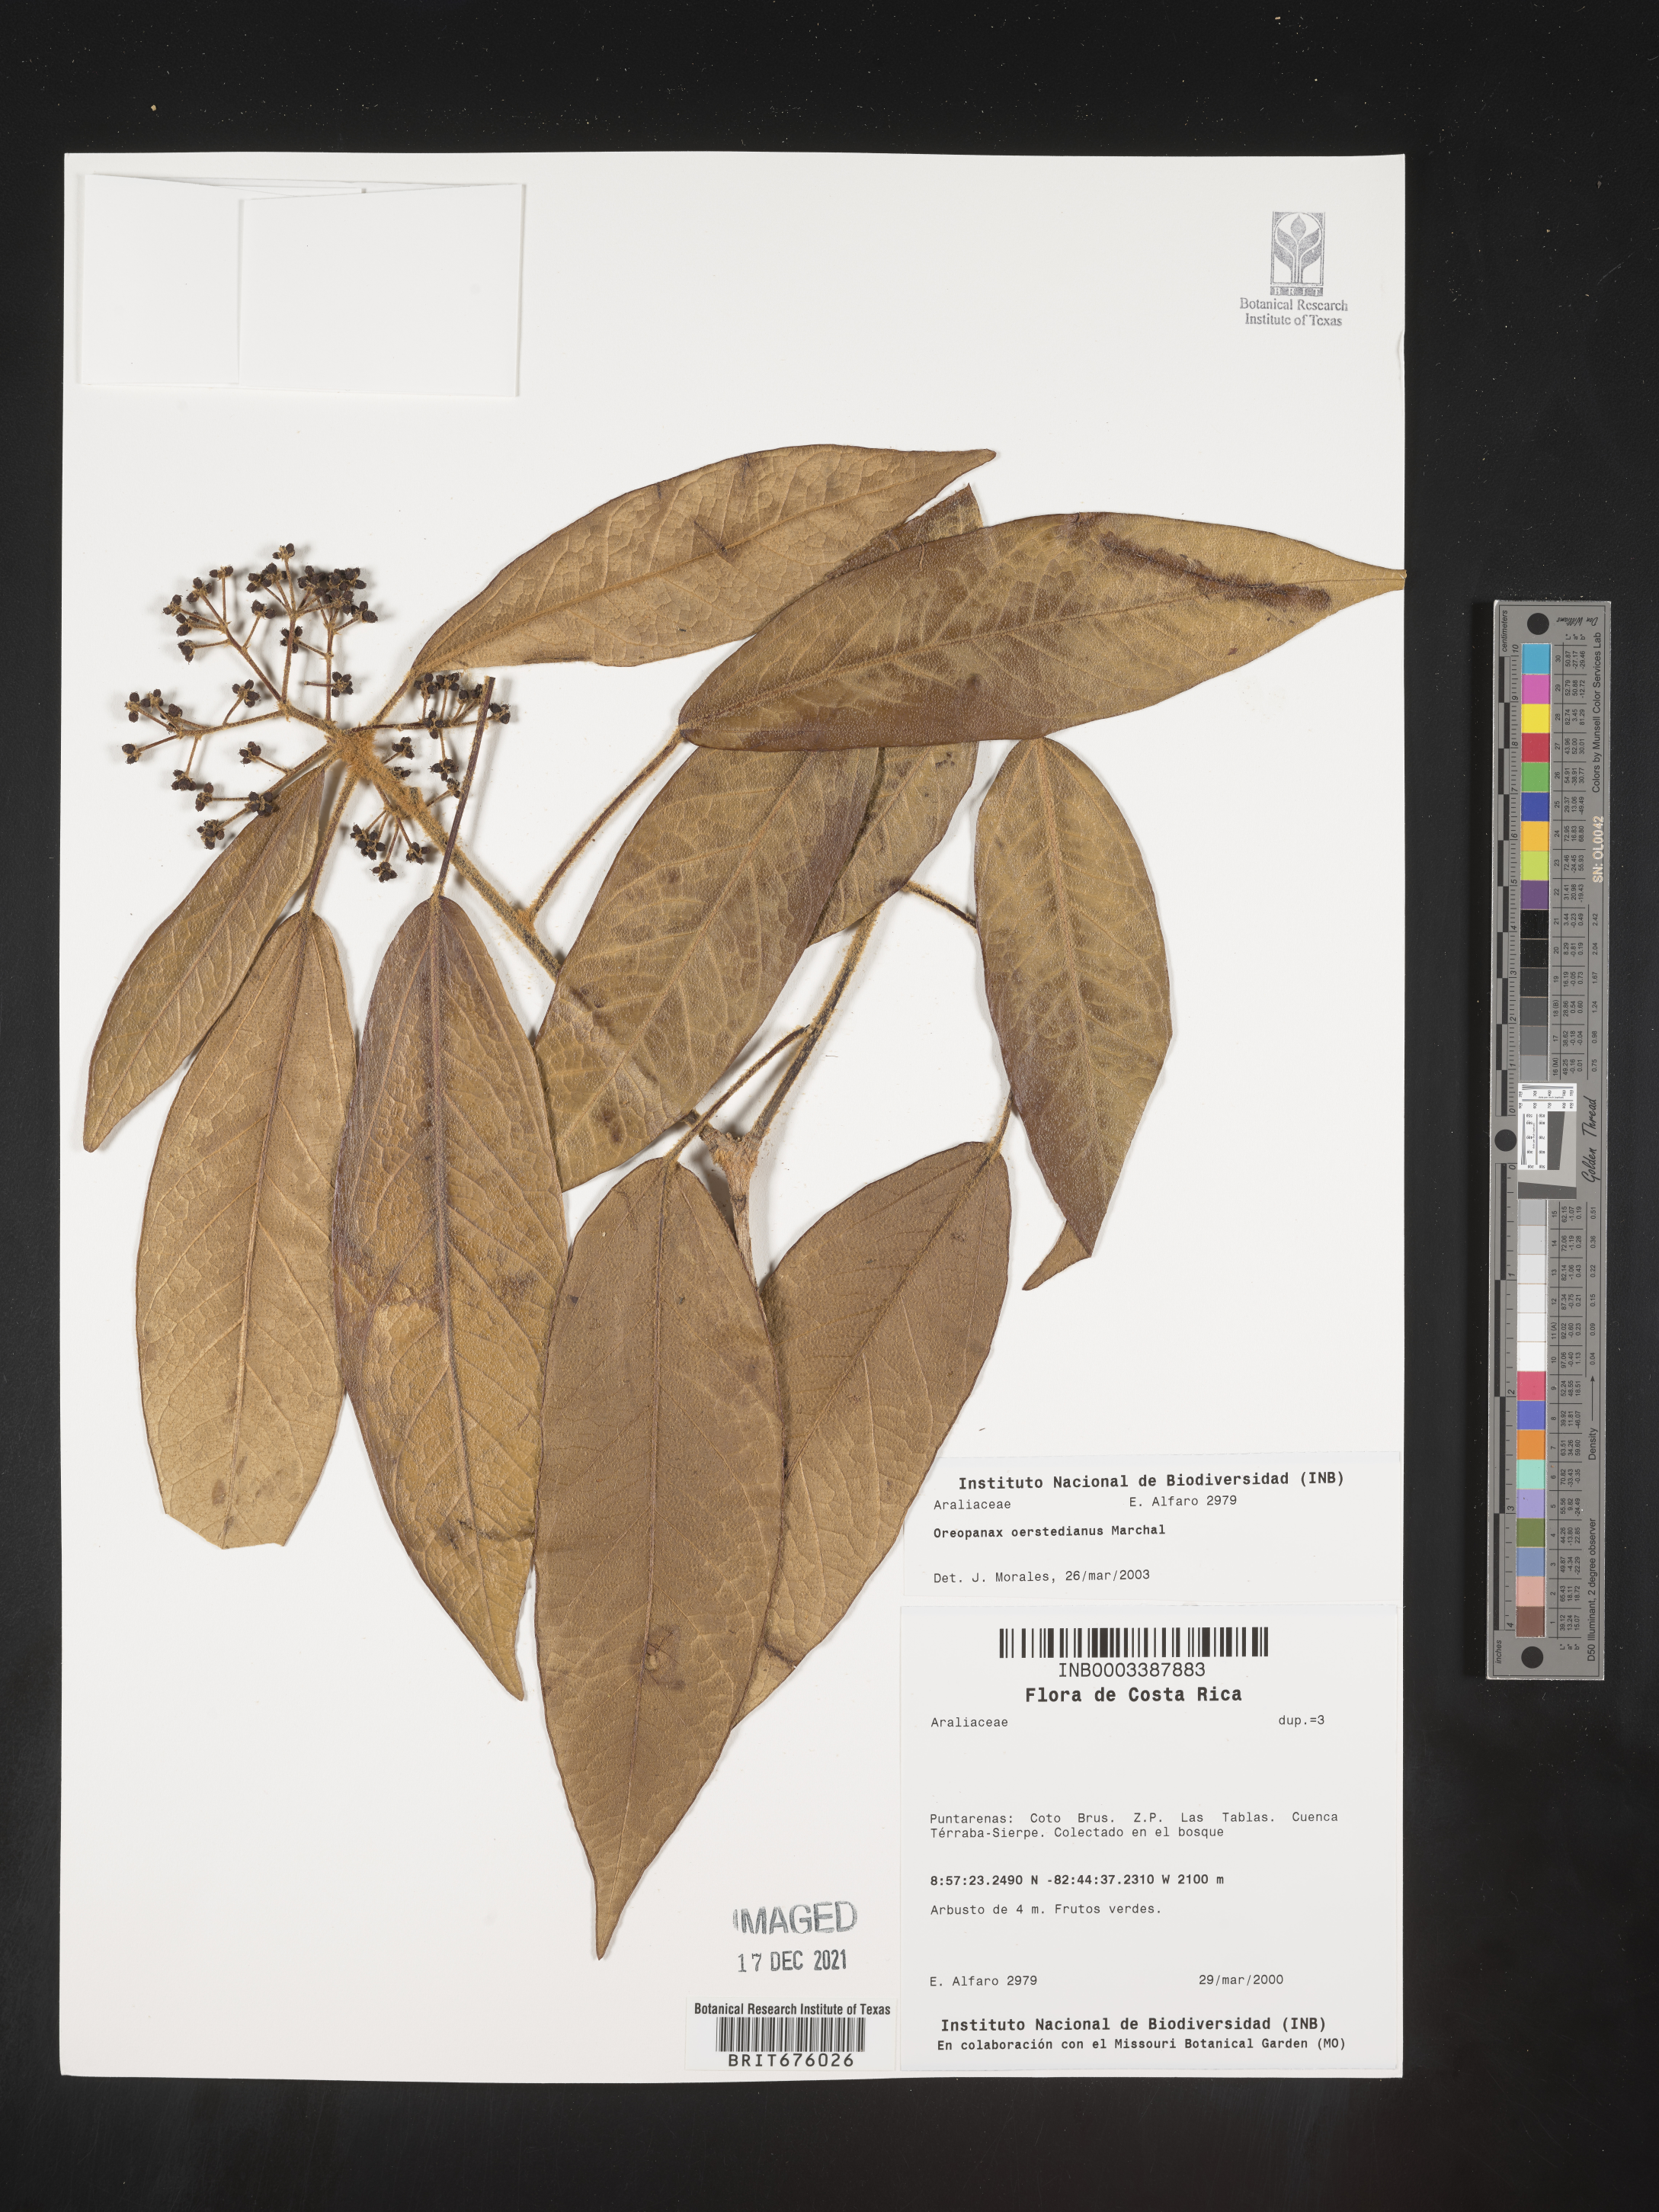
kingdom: Plantae
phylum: Tracheophyta
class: Magnoliopsida
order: Apiales
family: Araliaceae
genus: Oreopanax
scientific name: Oreopanax
